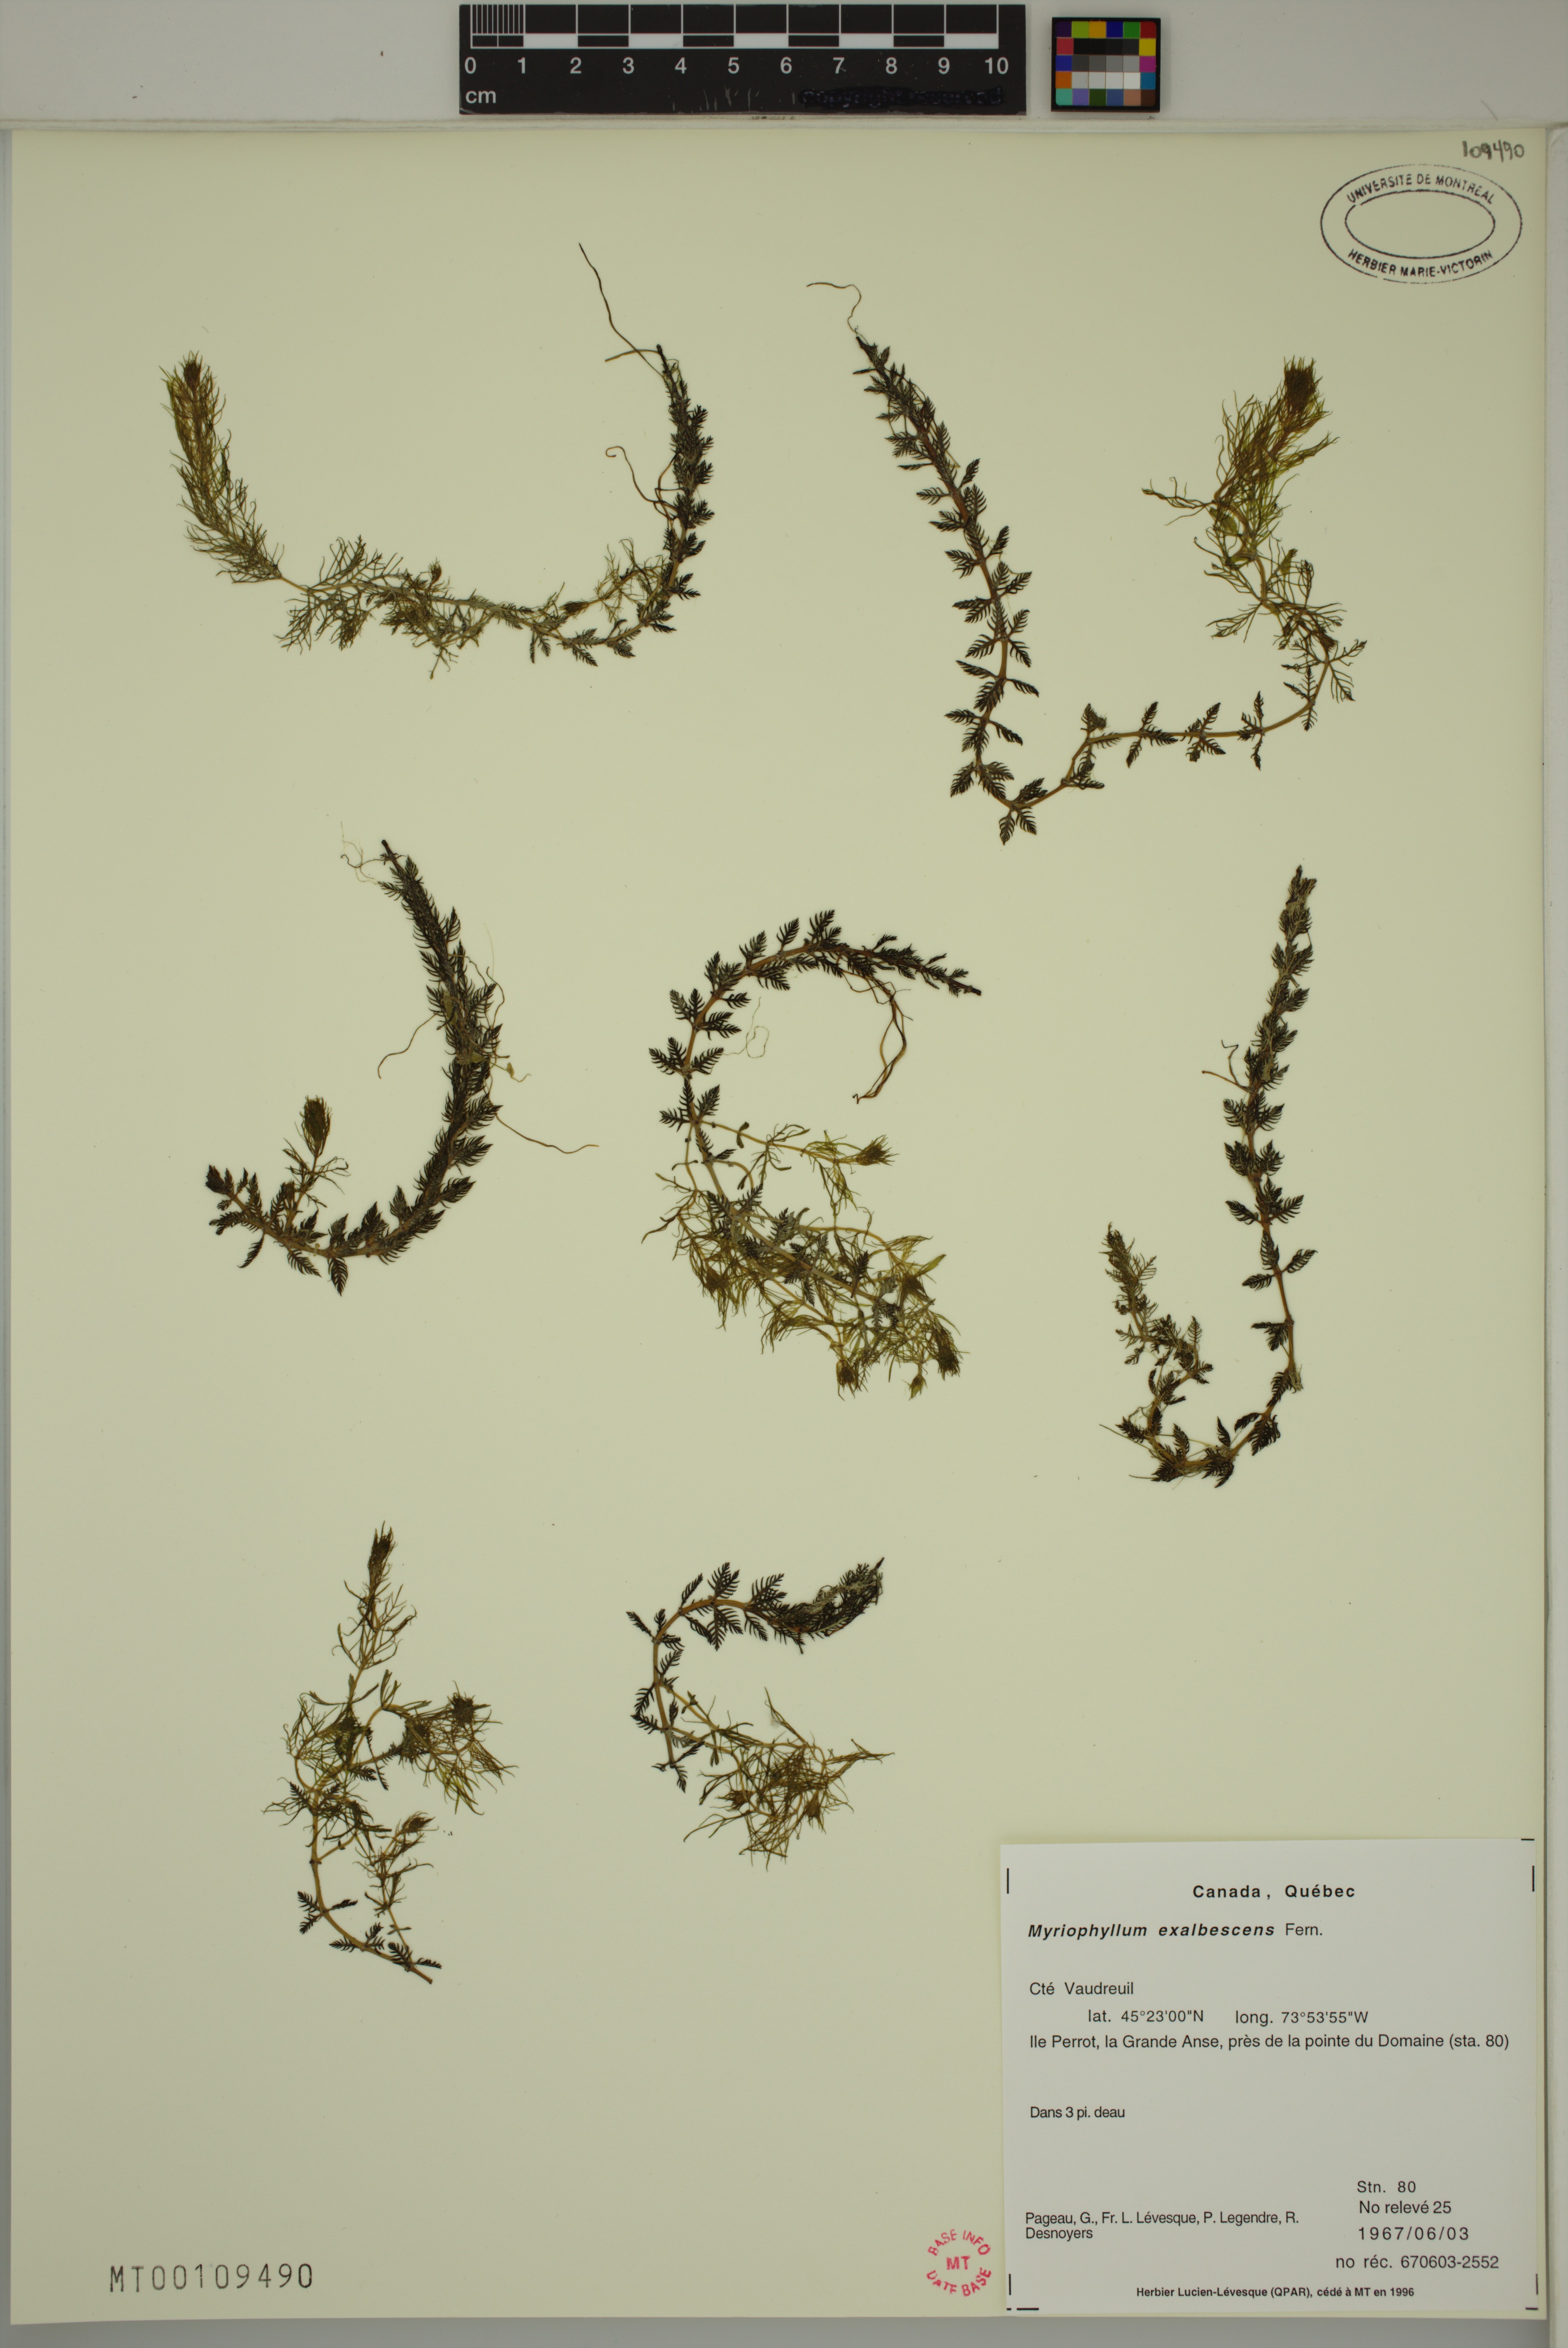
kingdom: Plantae
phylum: Tracheophyta
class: Magnoliopsida
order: Saxifragales
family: Haloragaceae
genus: Myriophyllum
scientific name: Myriophyllum sibiricum
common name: Siberian water-milfoil
